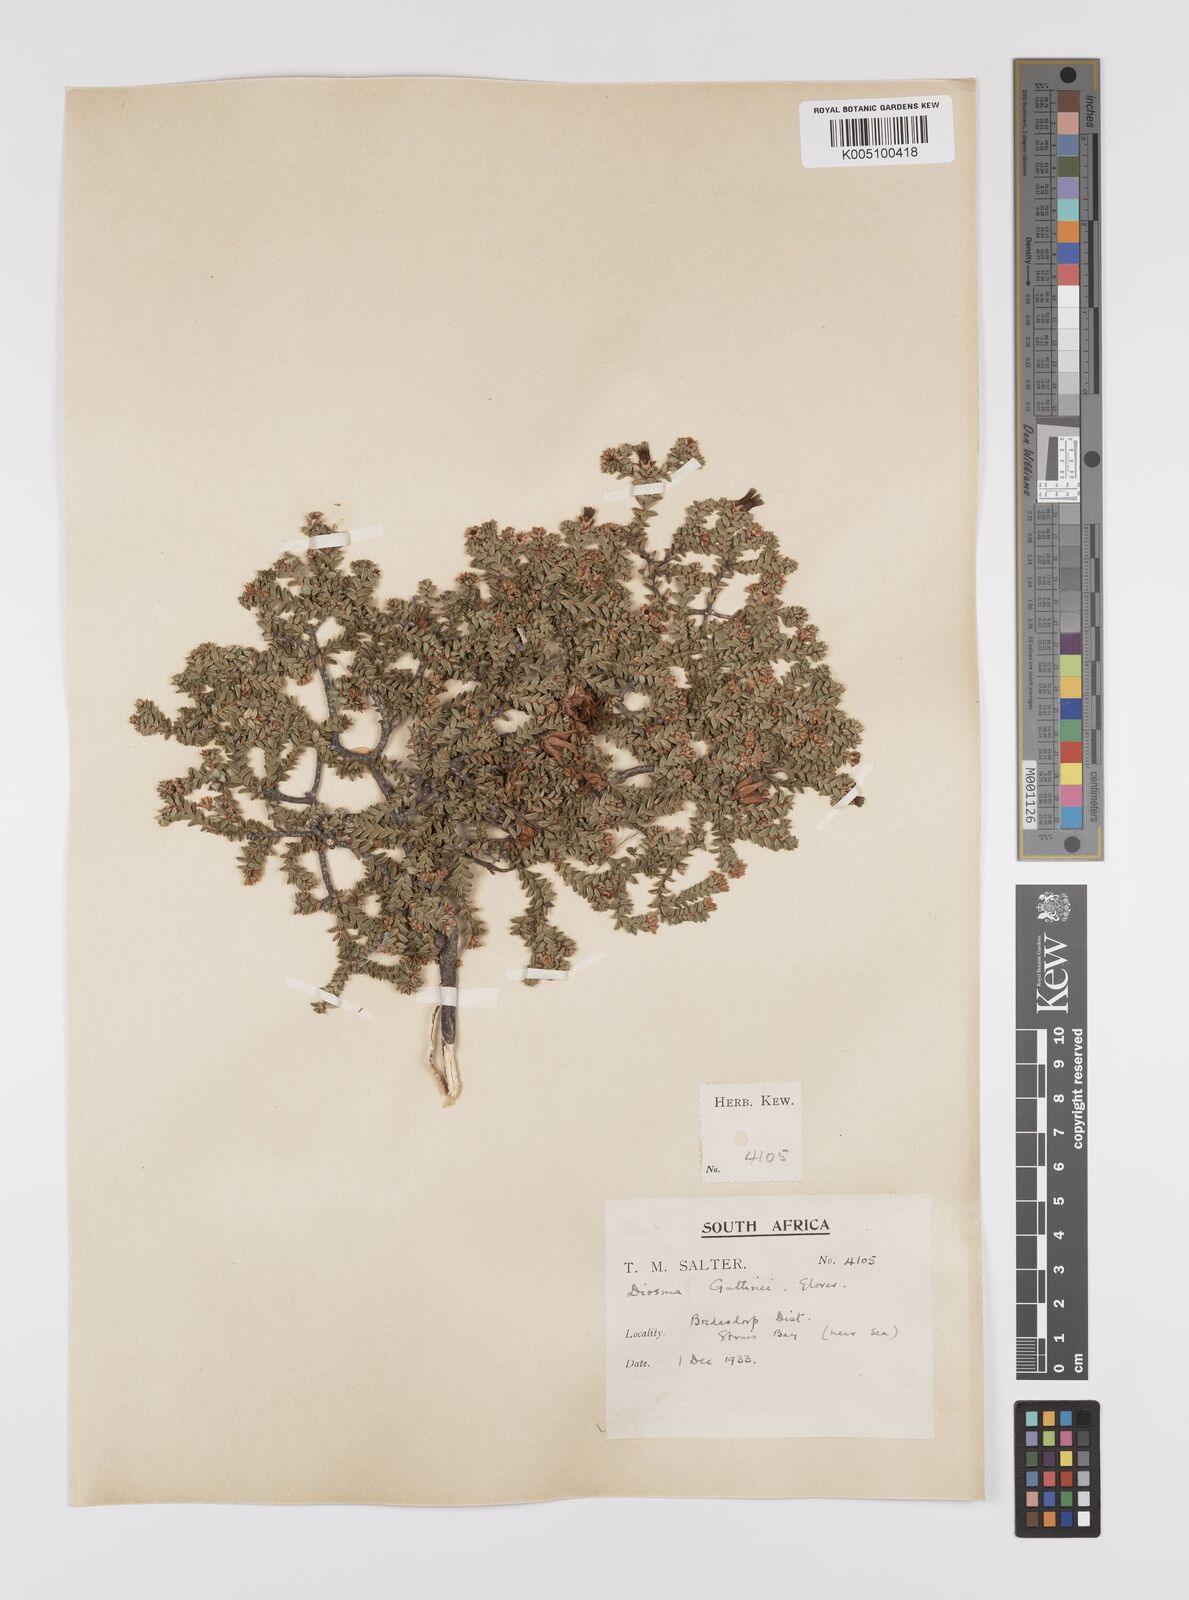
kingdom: Plantae
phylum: Tracheophyta
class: Magnoliopsida
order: Sapindales
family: Rutaceae
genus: Diosma
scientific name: Diosma guthriei
